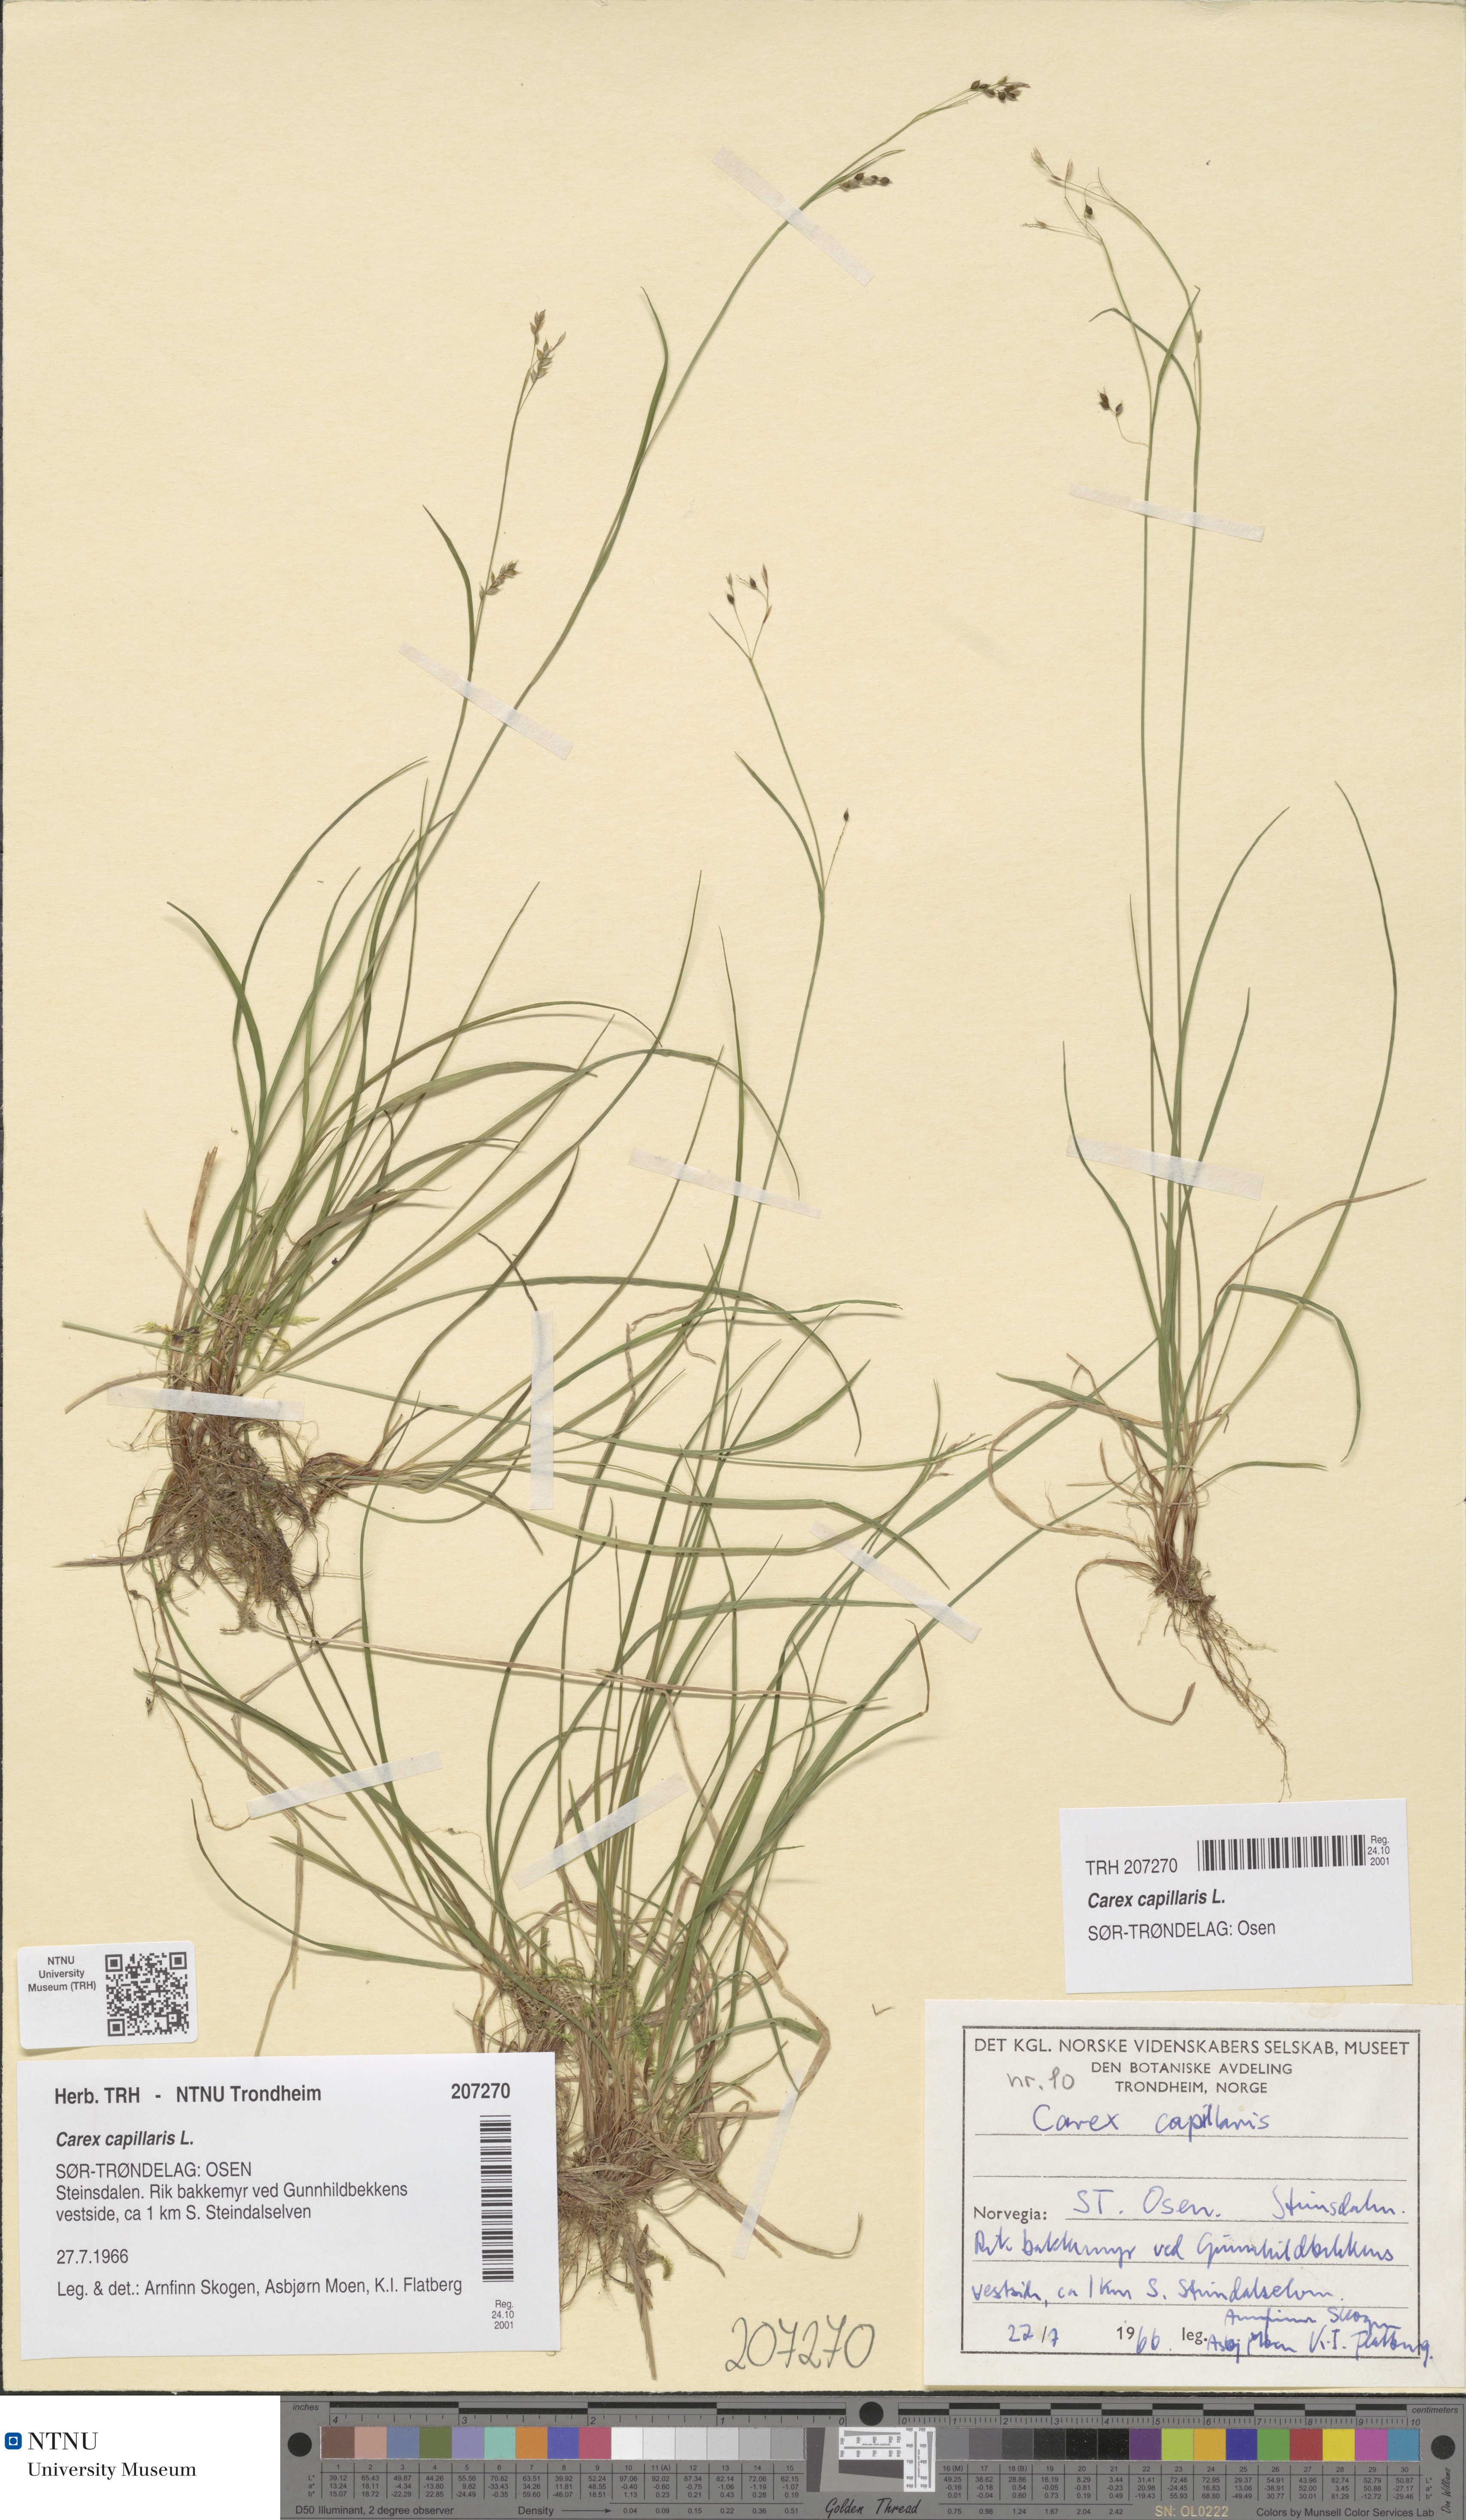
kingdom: Plantae
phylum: Tracheophyta
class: Liliopsida
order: Poales
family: Cyperaceae
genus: Carex
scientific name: Carex capillaris
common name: Hair sedge
